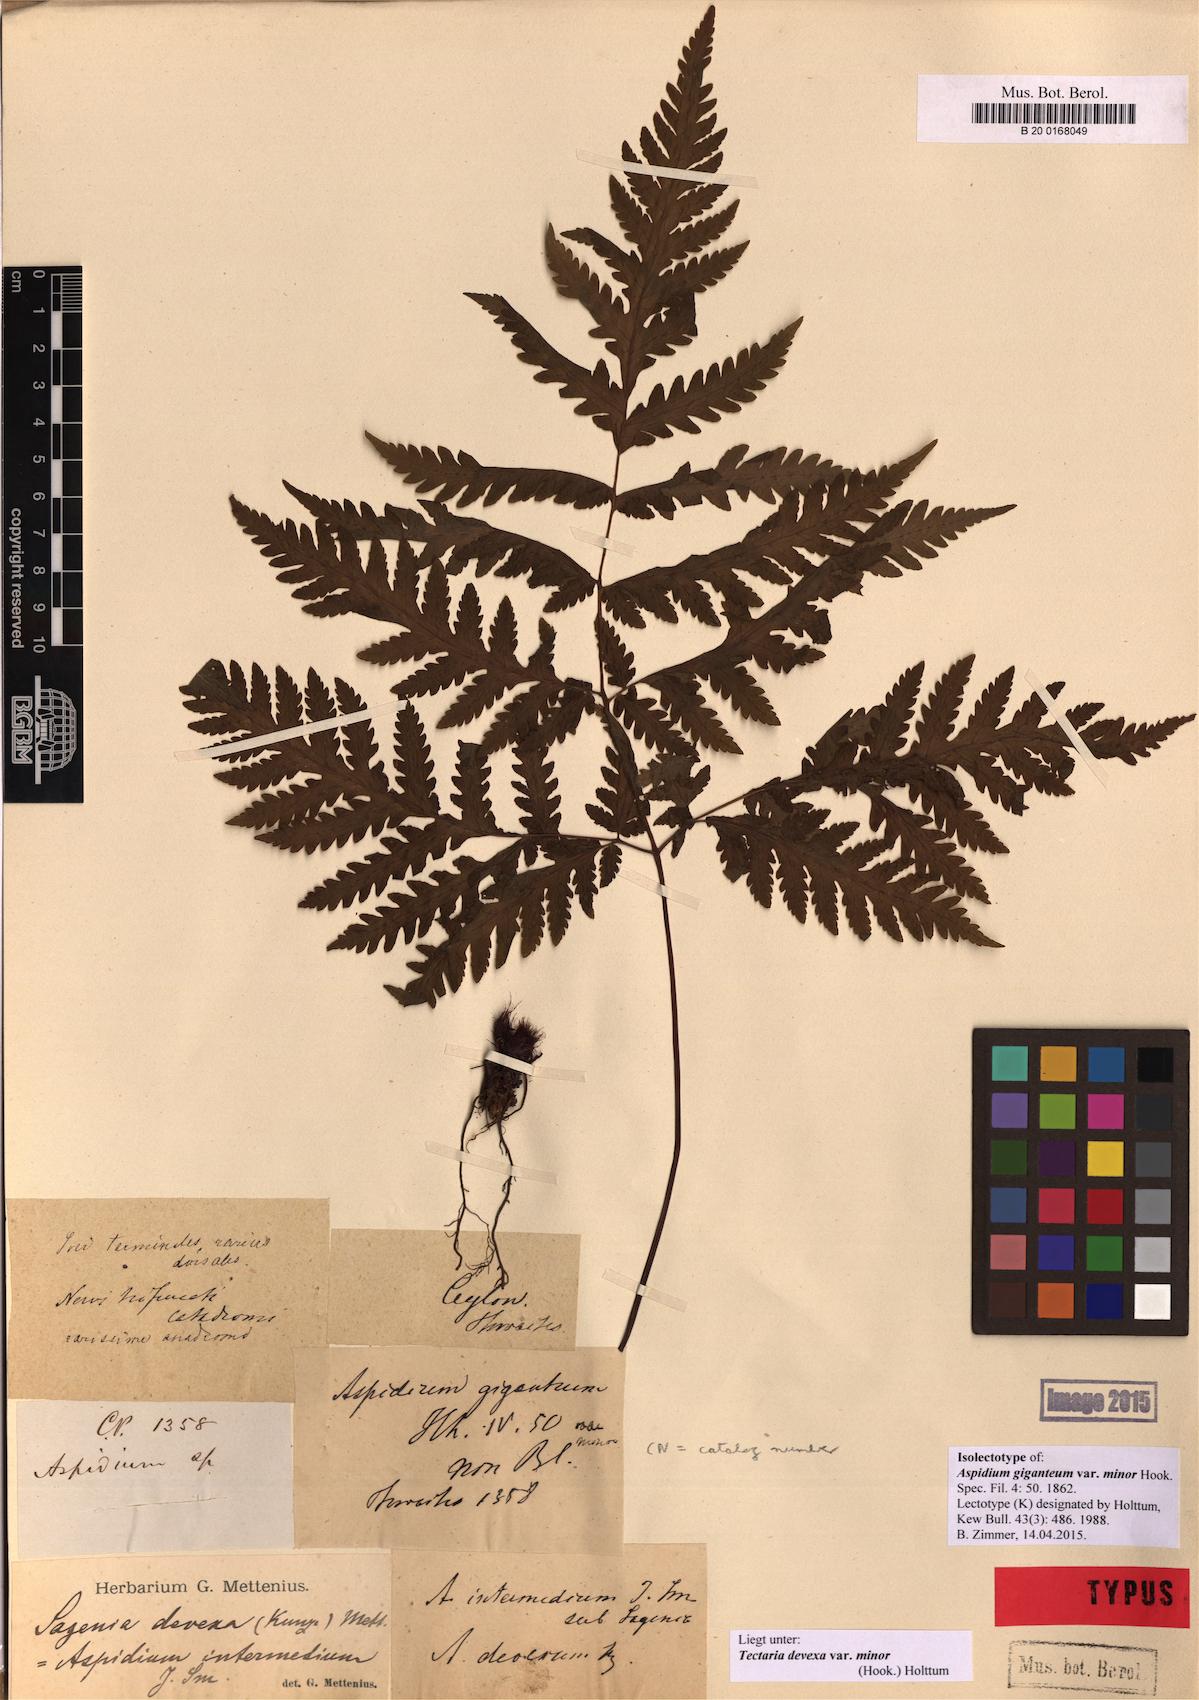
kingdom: Plantae
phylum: Tracheophyta
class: Polypodiopsida
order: Polypodiales
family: Tectariaceae
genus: Tectaria
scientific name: Tectaria membranacea
